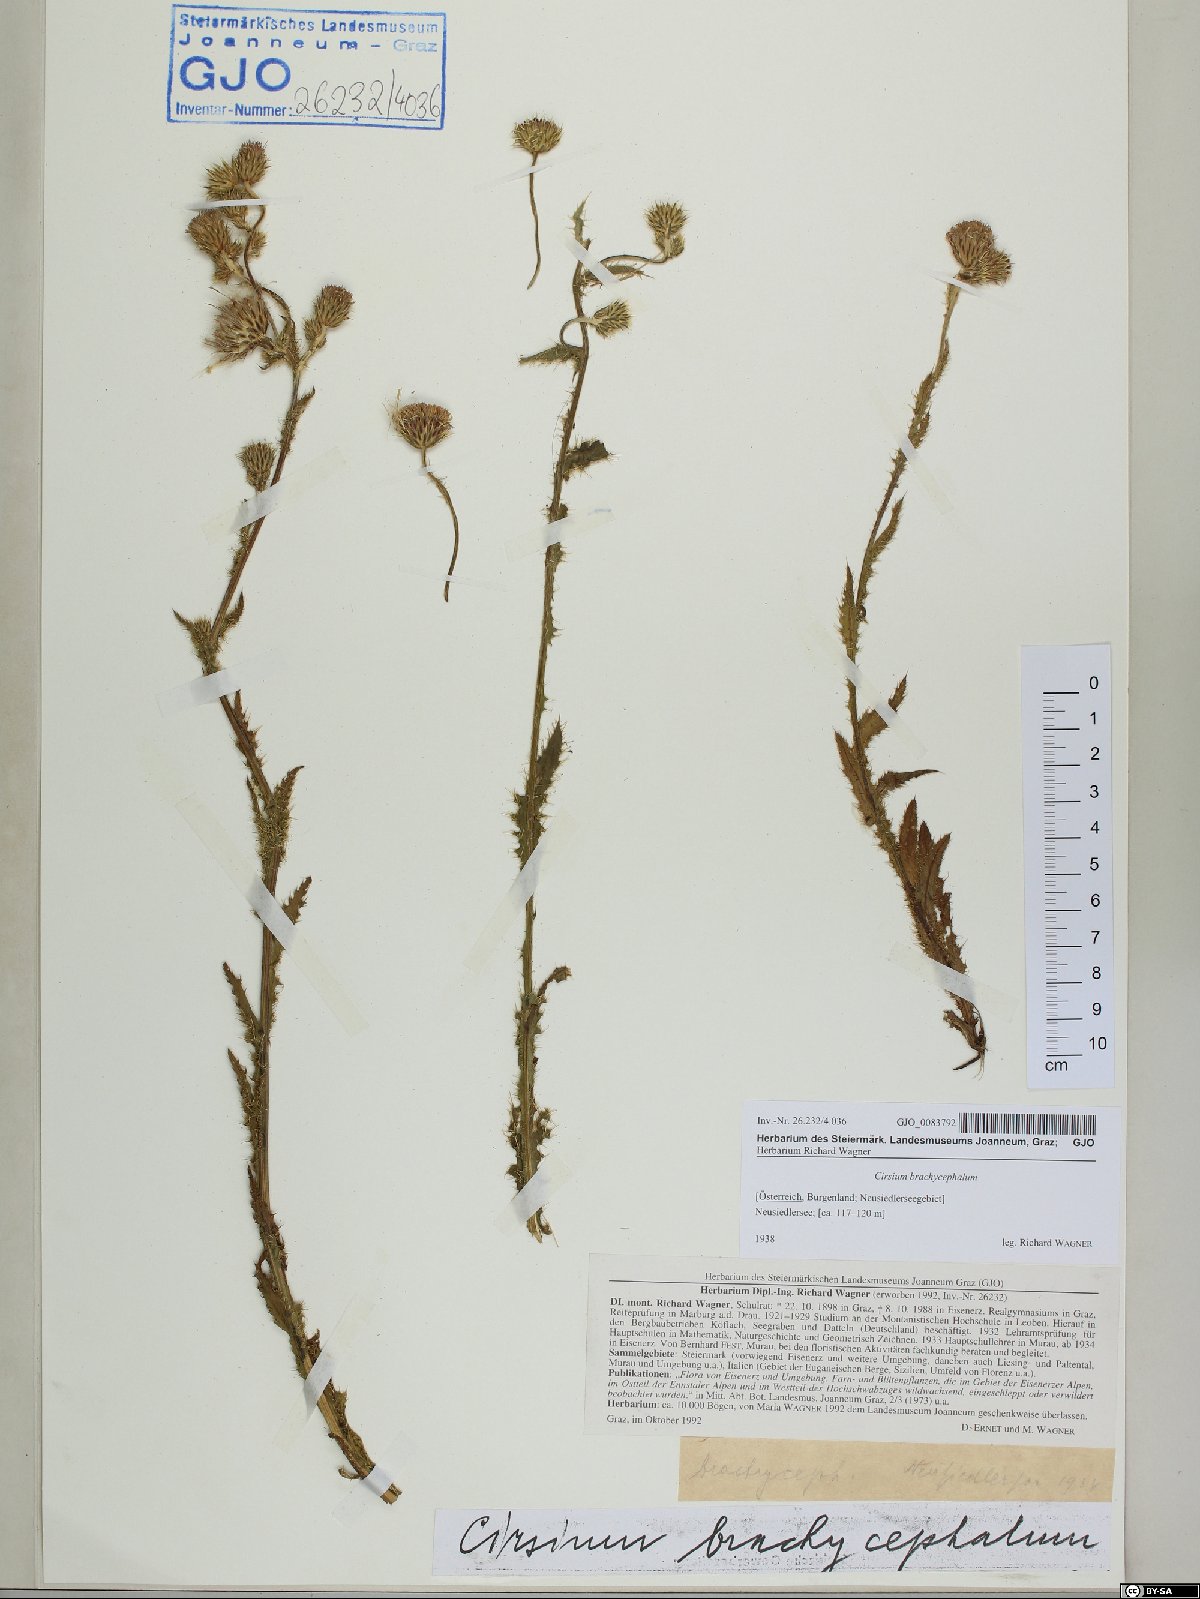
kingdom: Plantae
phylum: Tracheophyta
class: Magnoliopsida
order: Asterales
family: Asteraceae
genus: Cirsium
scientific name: Cirsium brachycephalum
